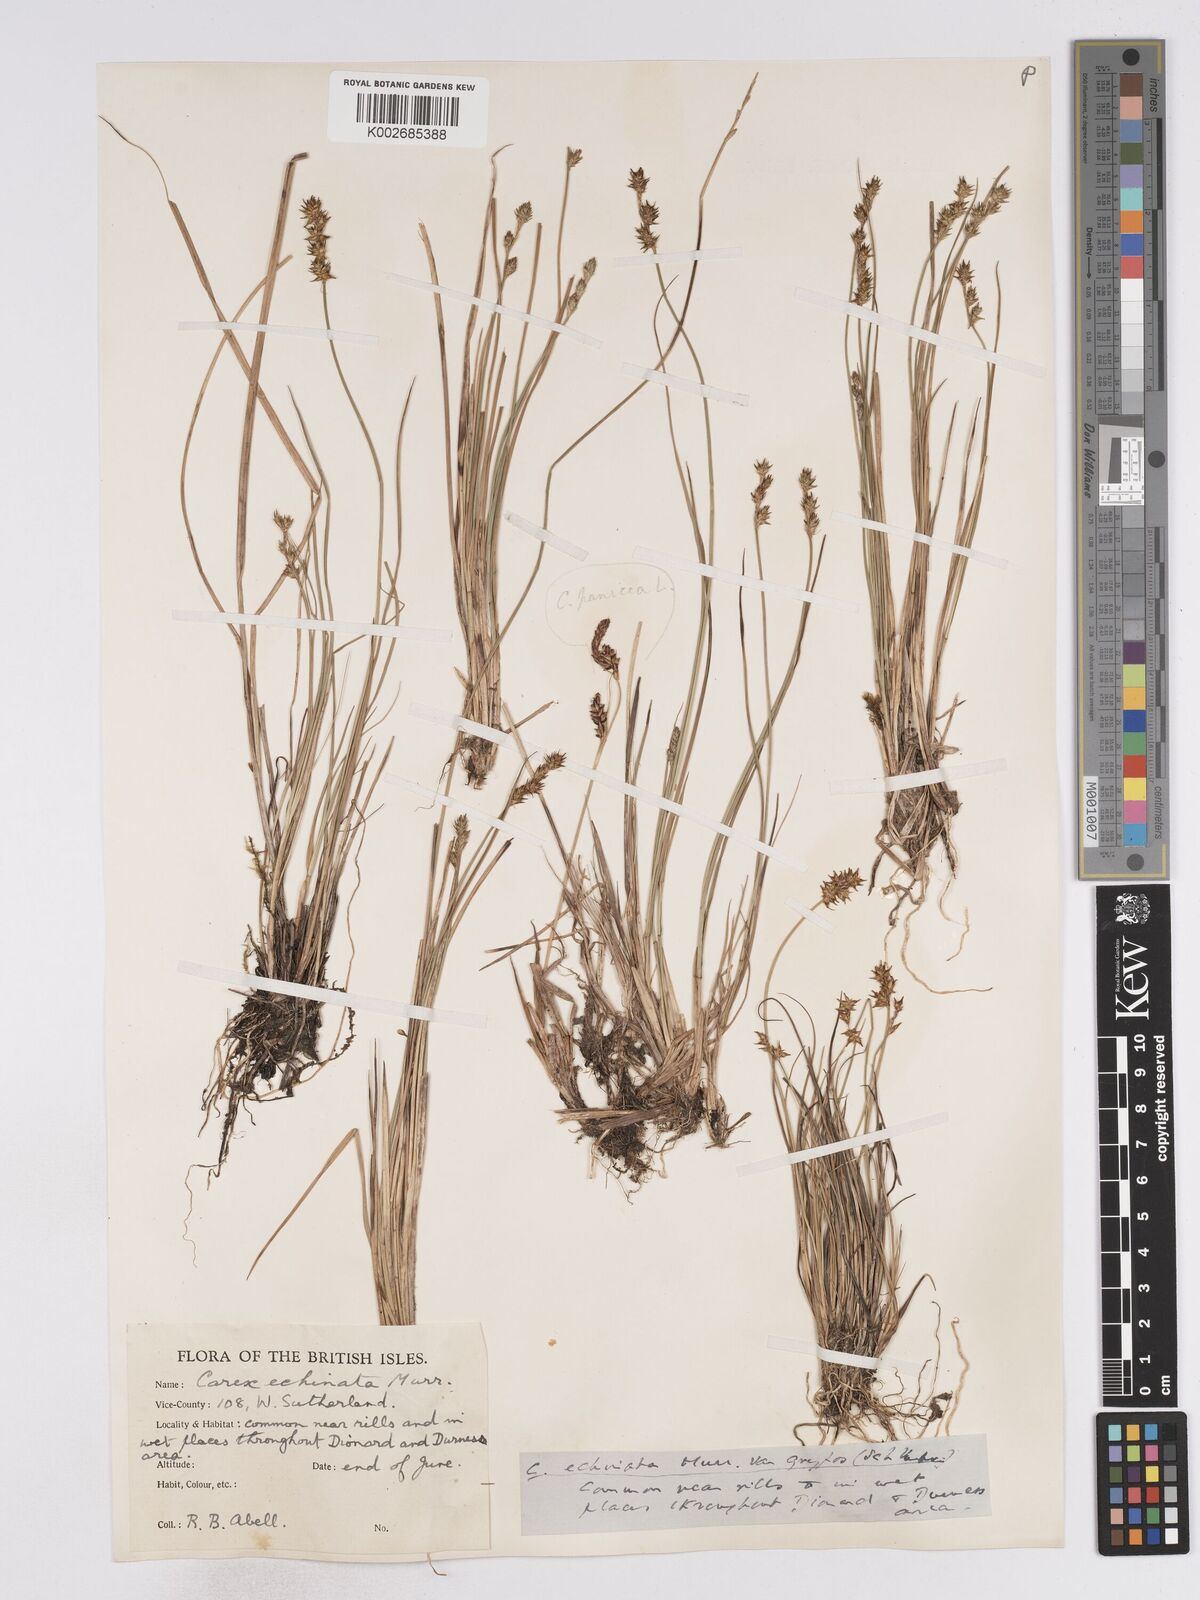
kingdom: Plantae
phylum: Tracheophyta
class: Liliopsida
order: Poales
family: Cyperaceae
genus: Carex
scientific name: Carex
